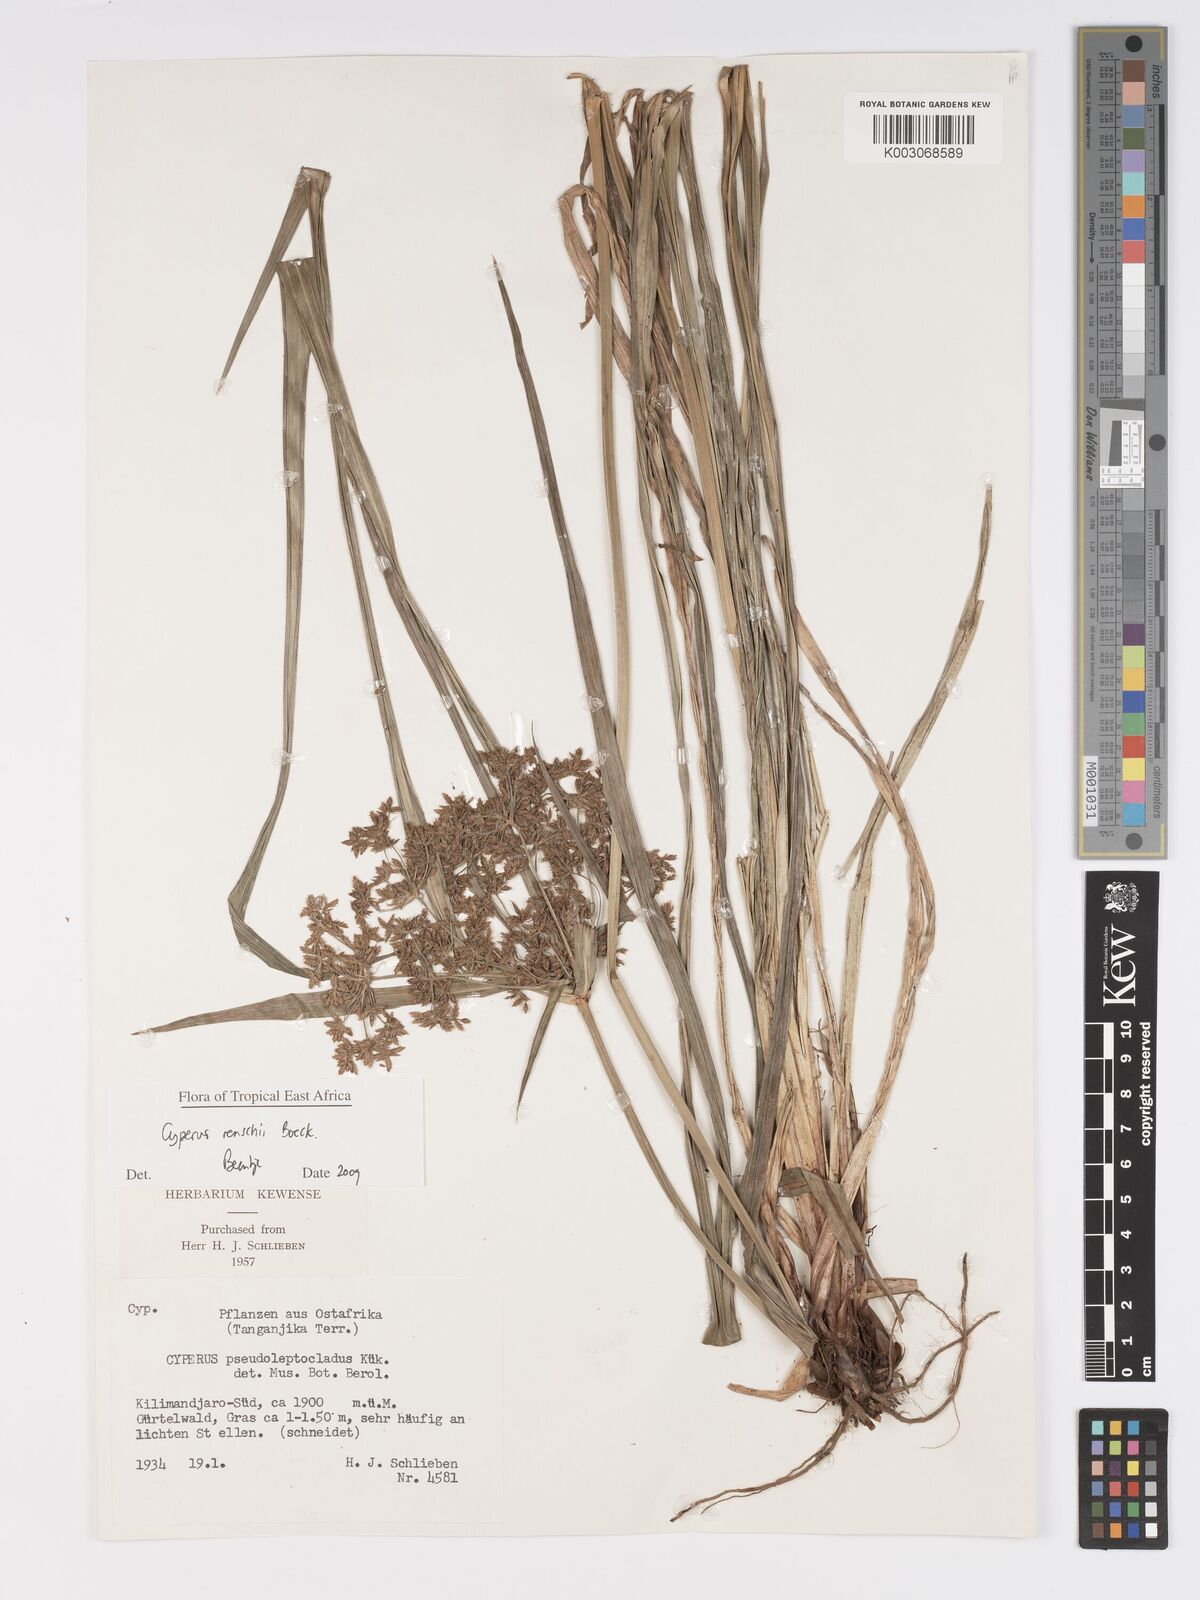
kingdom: Plantae
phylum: Tracheophyta
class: Liliopsida
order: Poales
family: Cyperaceae
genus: Cyperus
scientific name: Cyperus renschii
